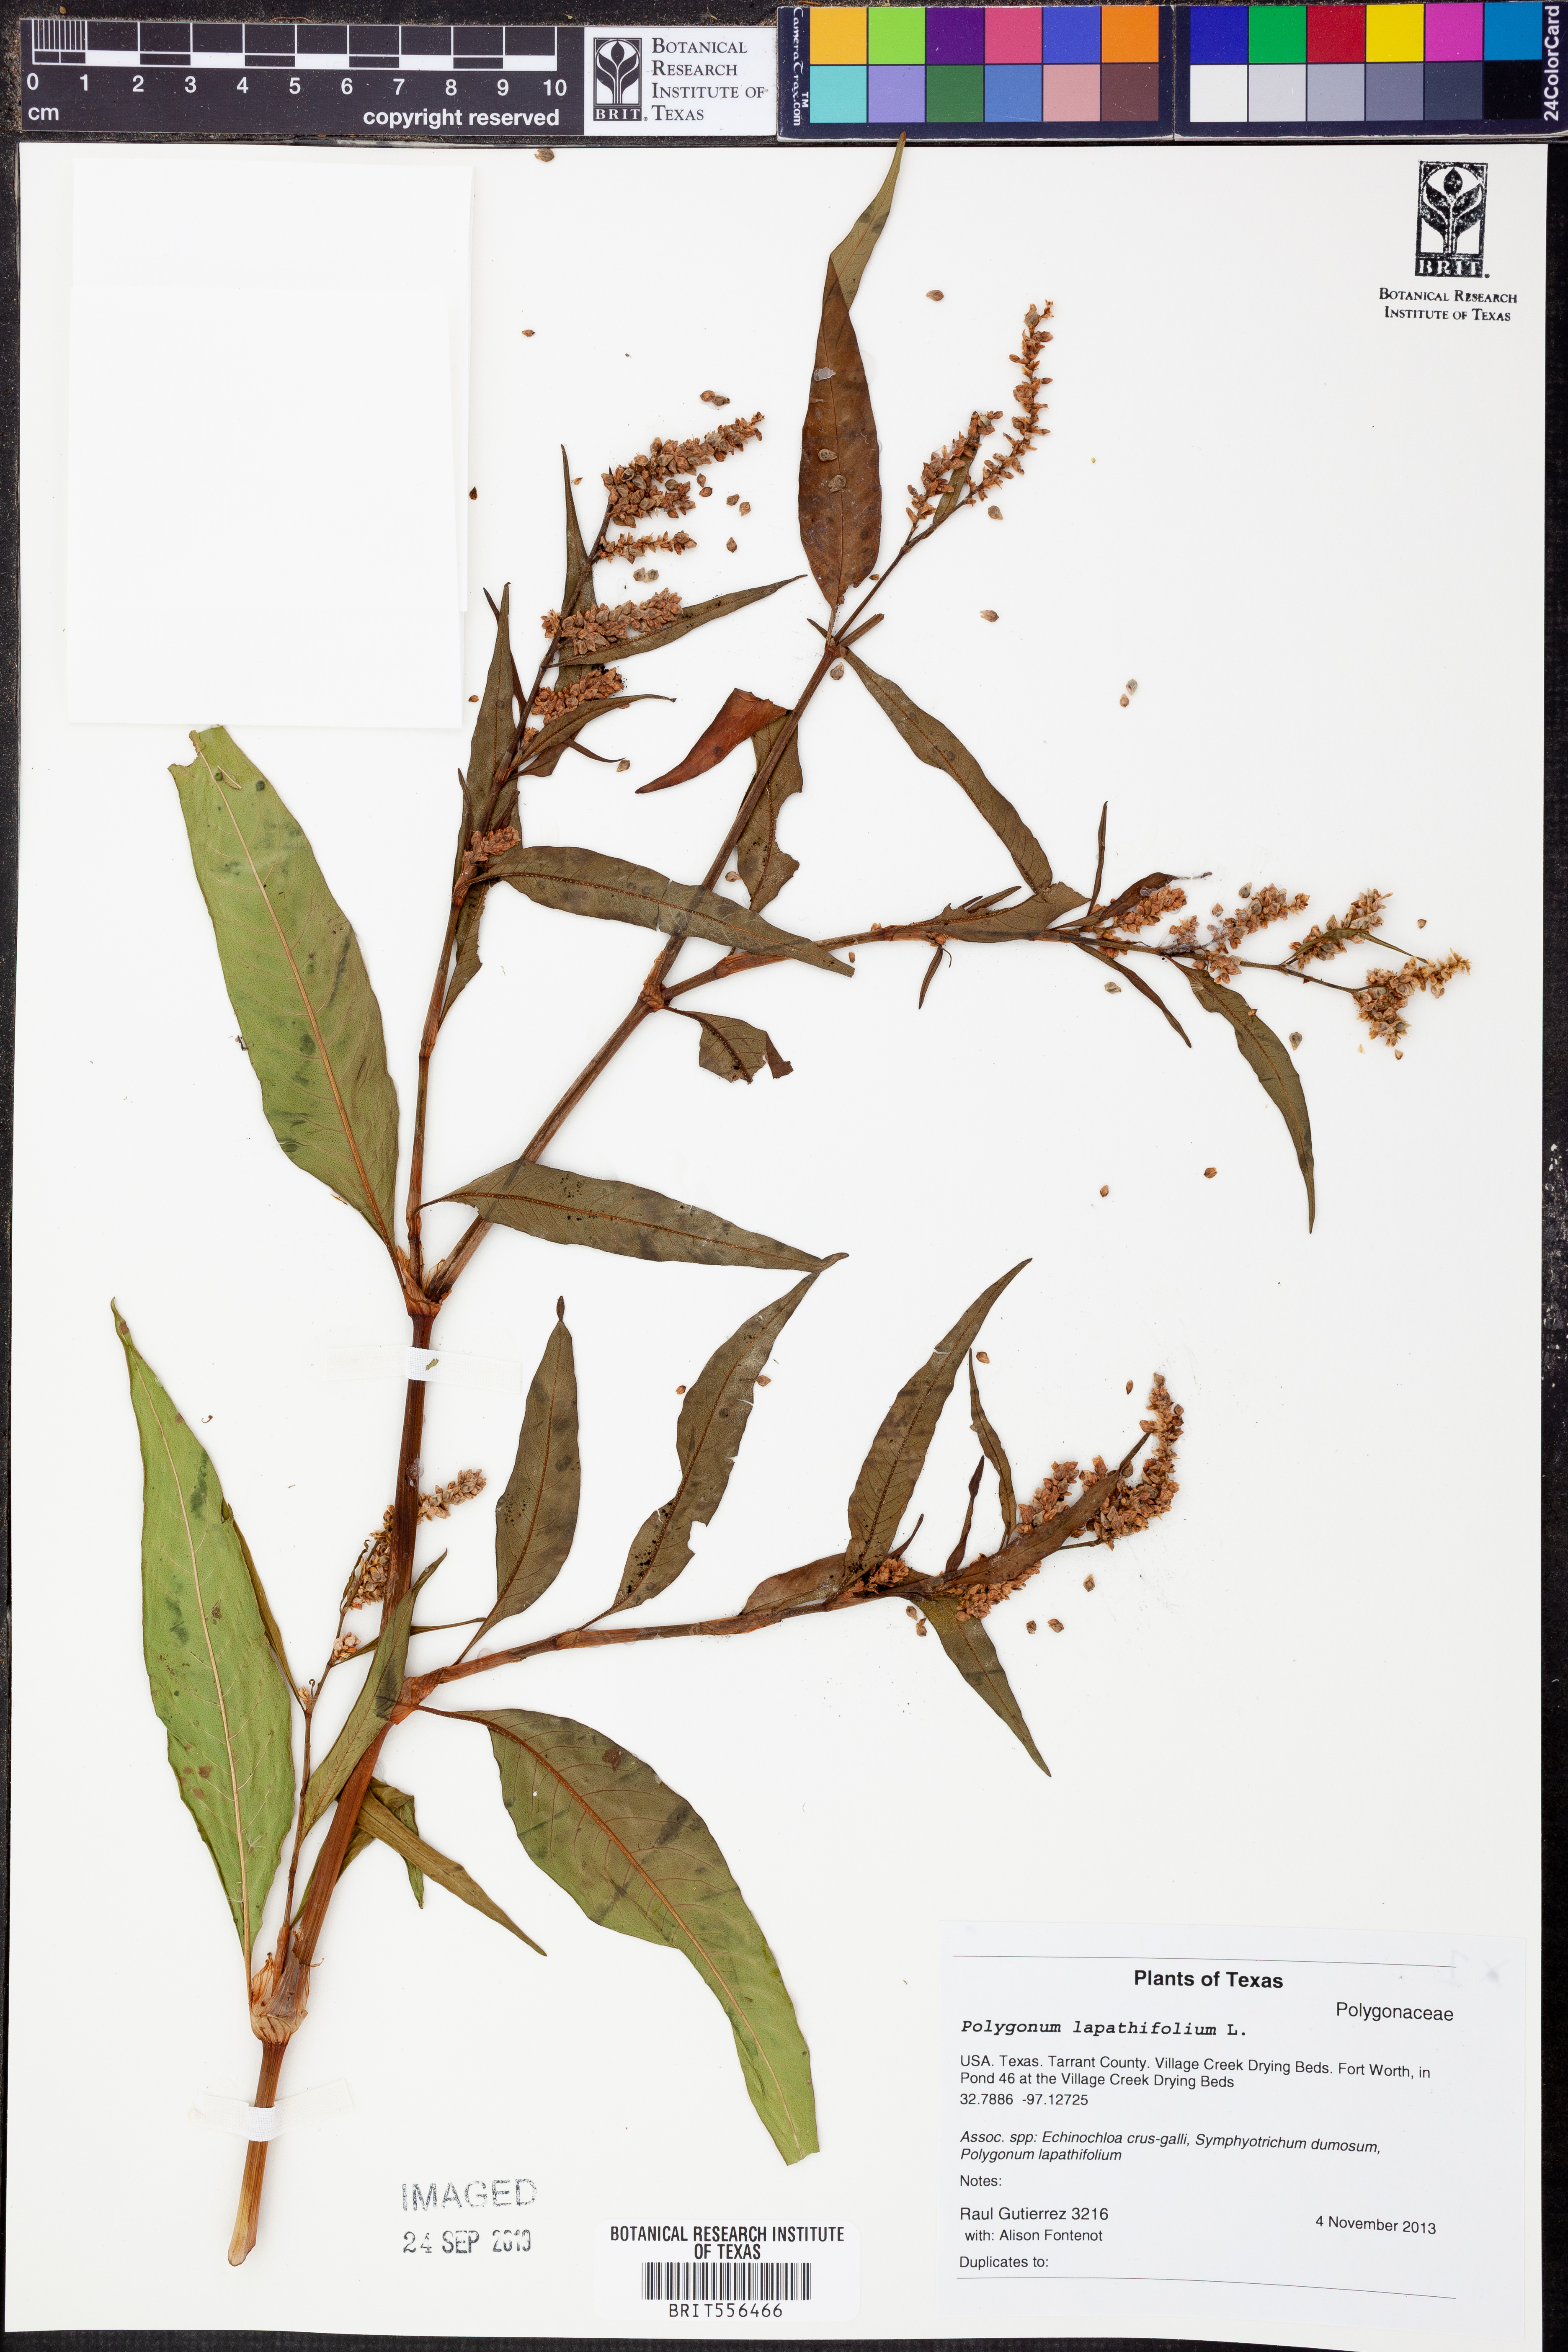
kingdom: Plantae
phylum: Tracheophyta
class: Magnoliopsida
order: Caryophyllales
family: Polygonaceae
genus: Persicaria
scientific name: Persicaria lapathifolia
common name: Curlytop knotweed
